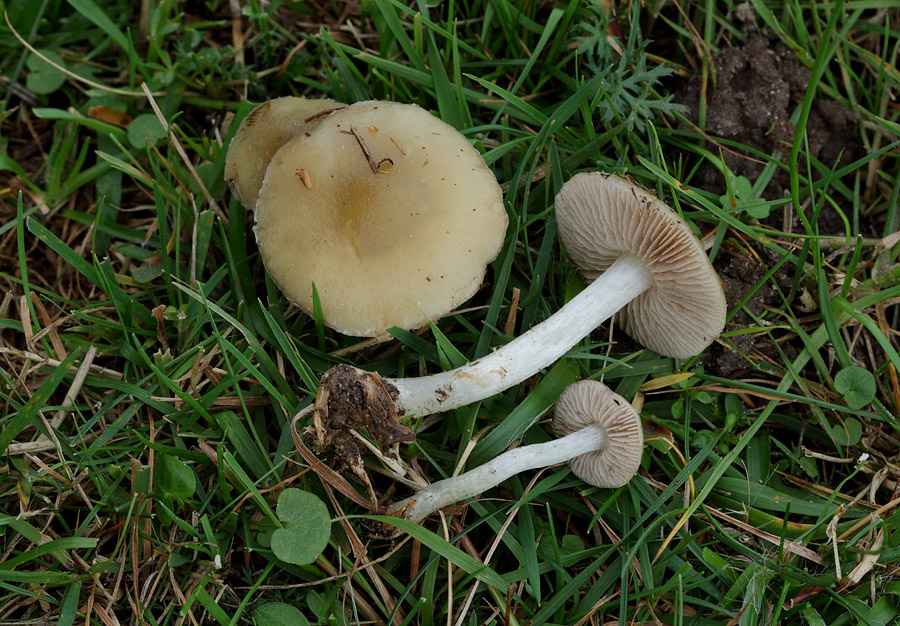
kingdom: Fungi
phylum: Basidiomycota
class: Agaricomycetes
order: Agaricales
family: Strophariaceae
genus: Stropharia
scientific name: Stropharia pseudocyanea
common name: blegblå bredblad
